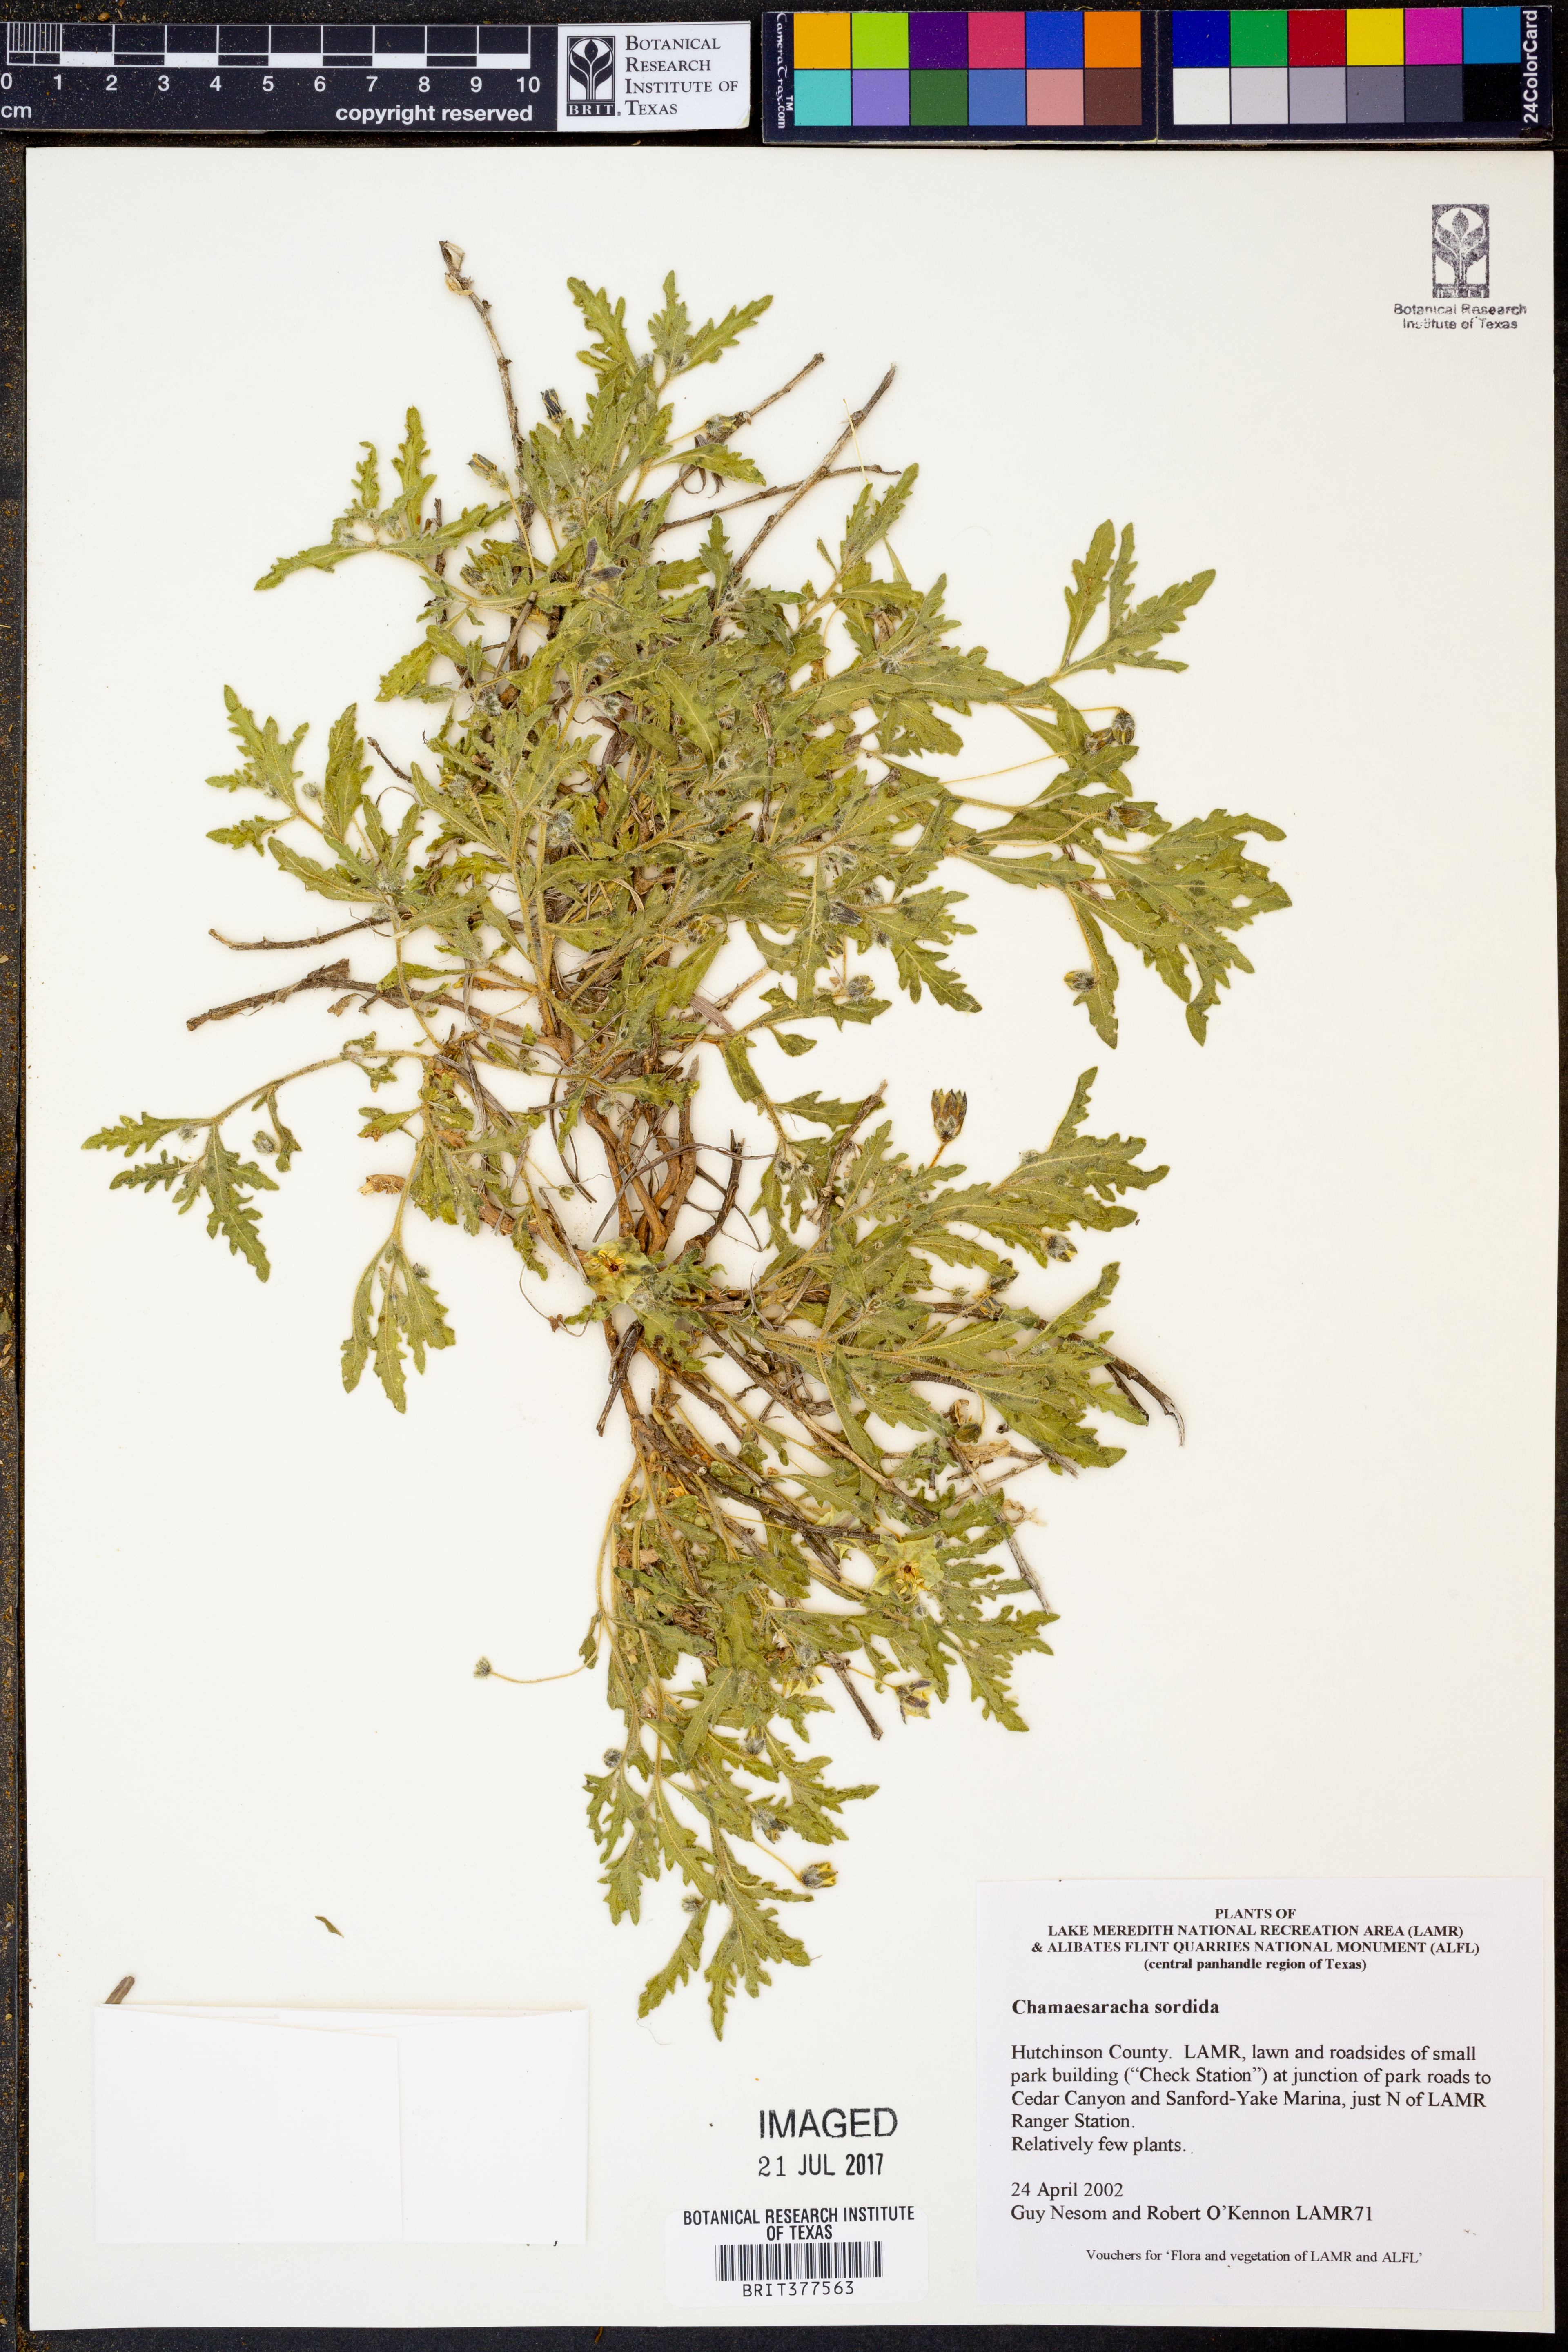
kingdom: Plantae
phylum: Tracheophyta
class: Magnoliopsida
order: Solanales
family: Solanaceae
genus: Chamaesaracha
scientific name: Chamaesaracha sordida
